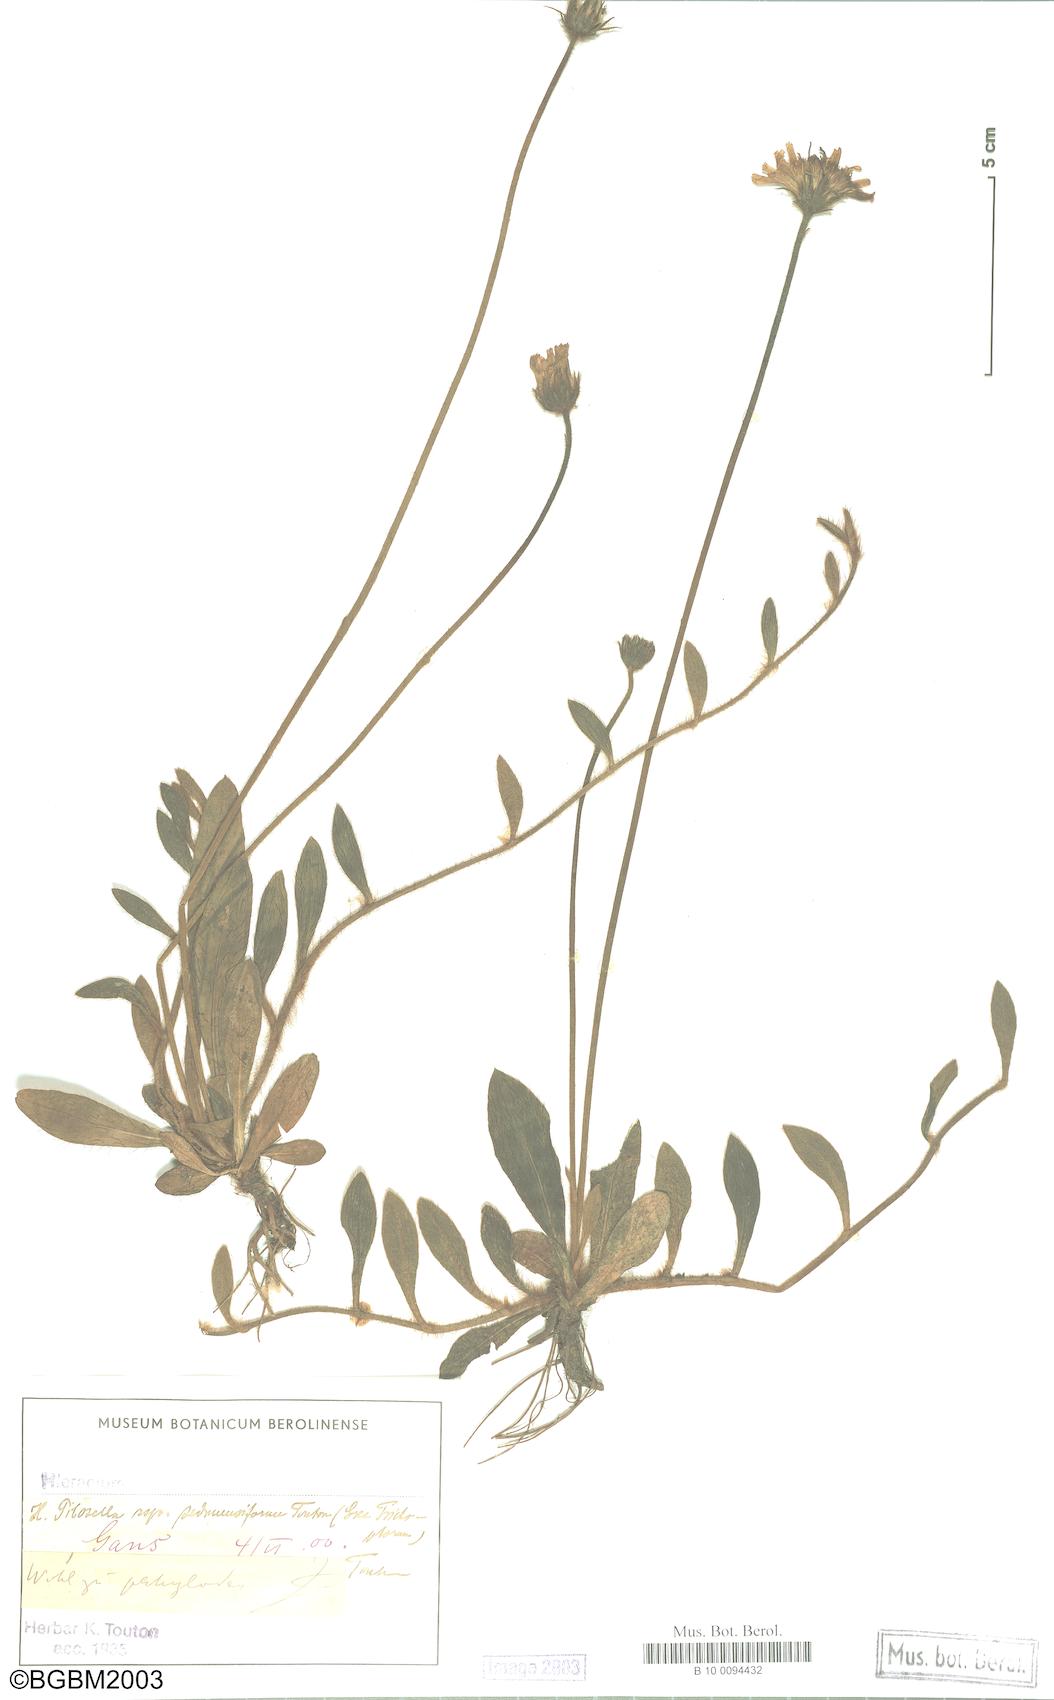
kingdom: Plantae
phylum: Tracheophyta
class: Magnoliopsida
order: Asterales
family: Asteraceae
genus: Pilosella
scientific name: Pilosella officinarum
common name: Mouse-ear hawkweed
